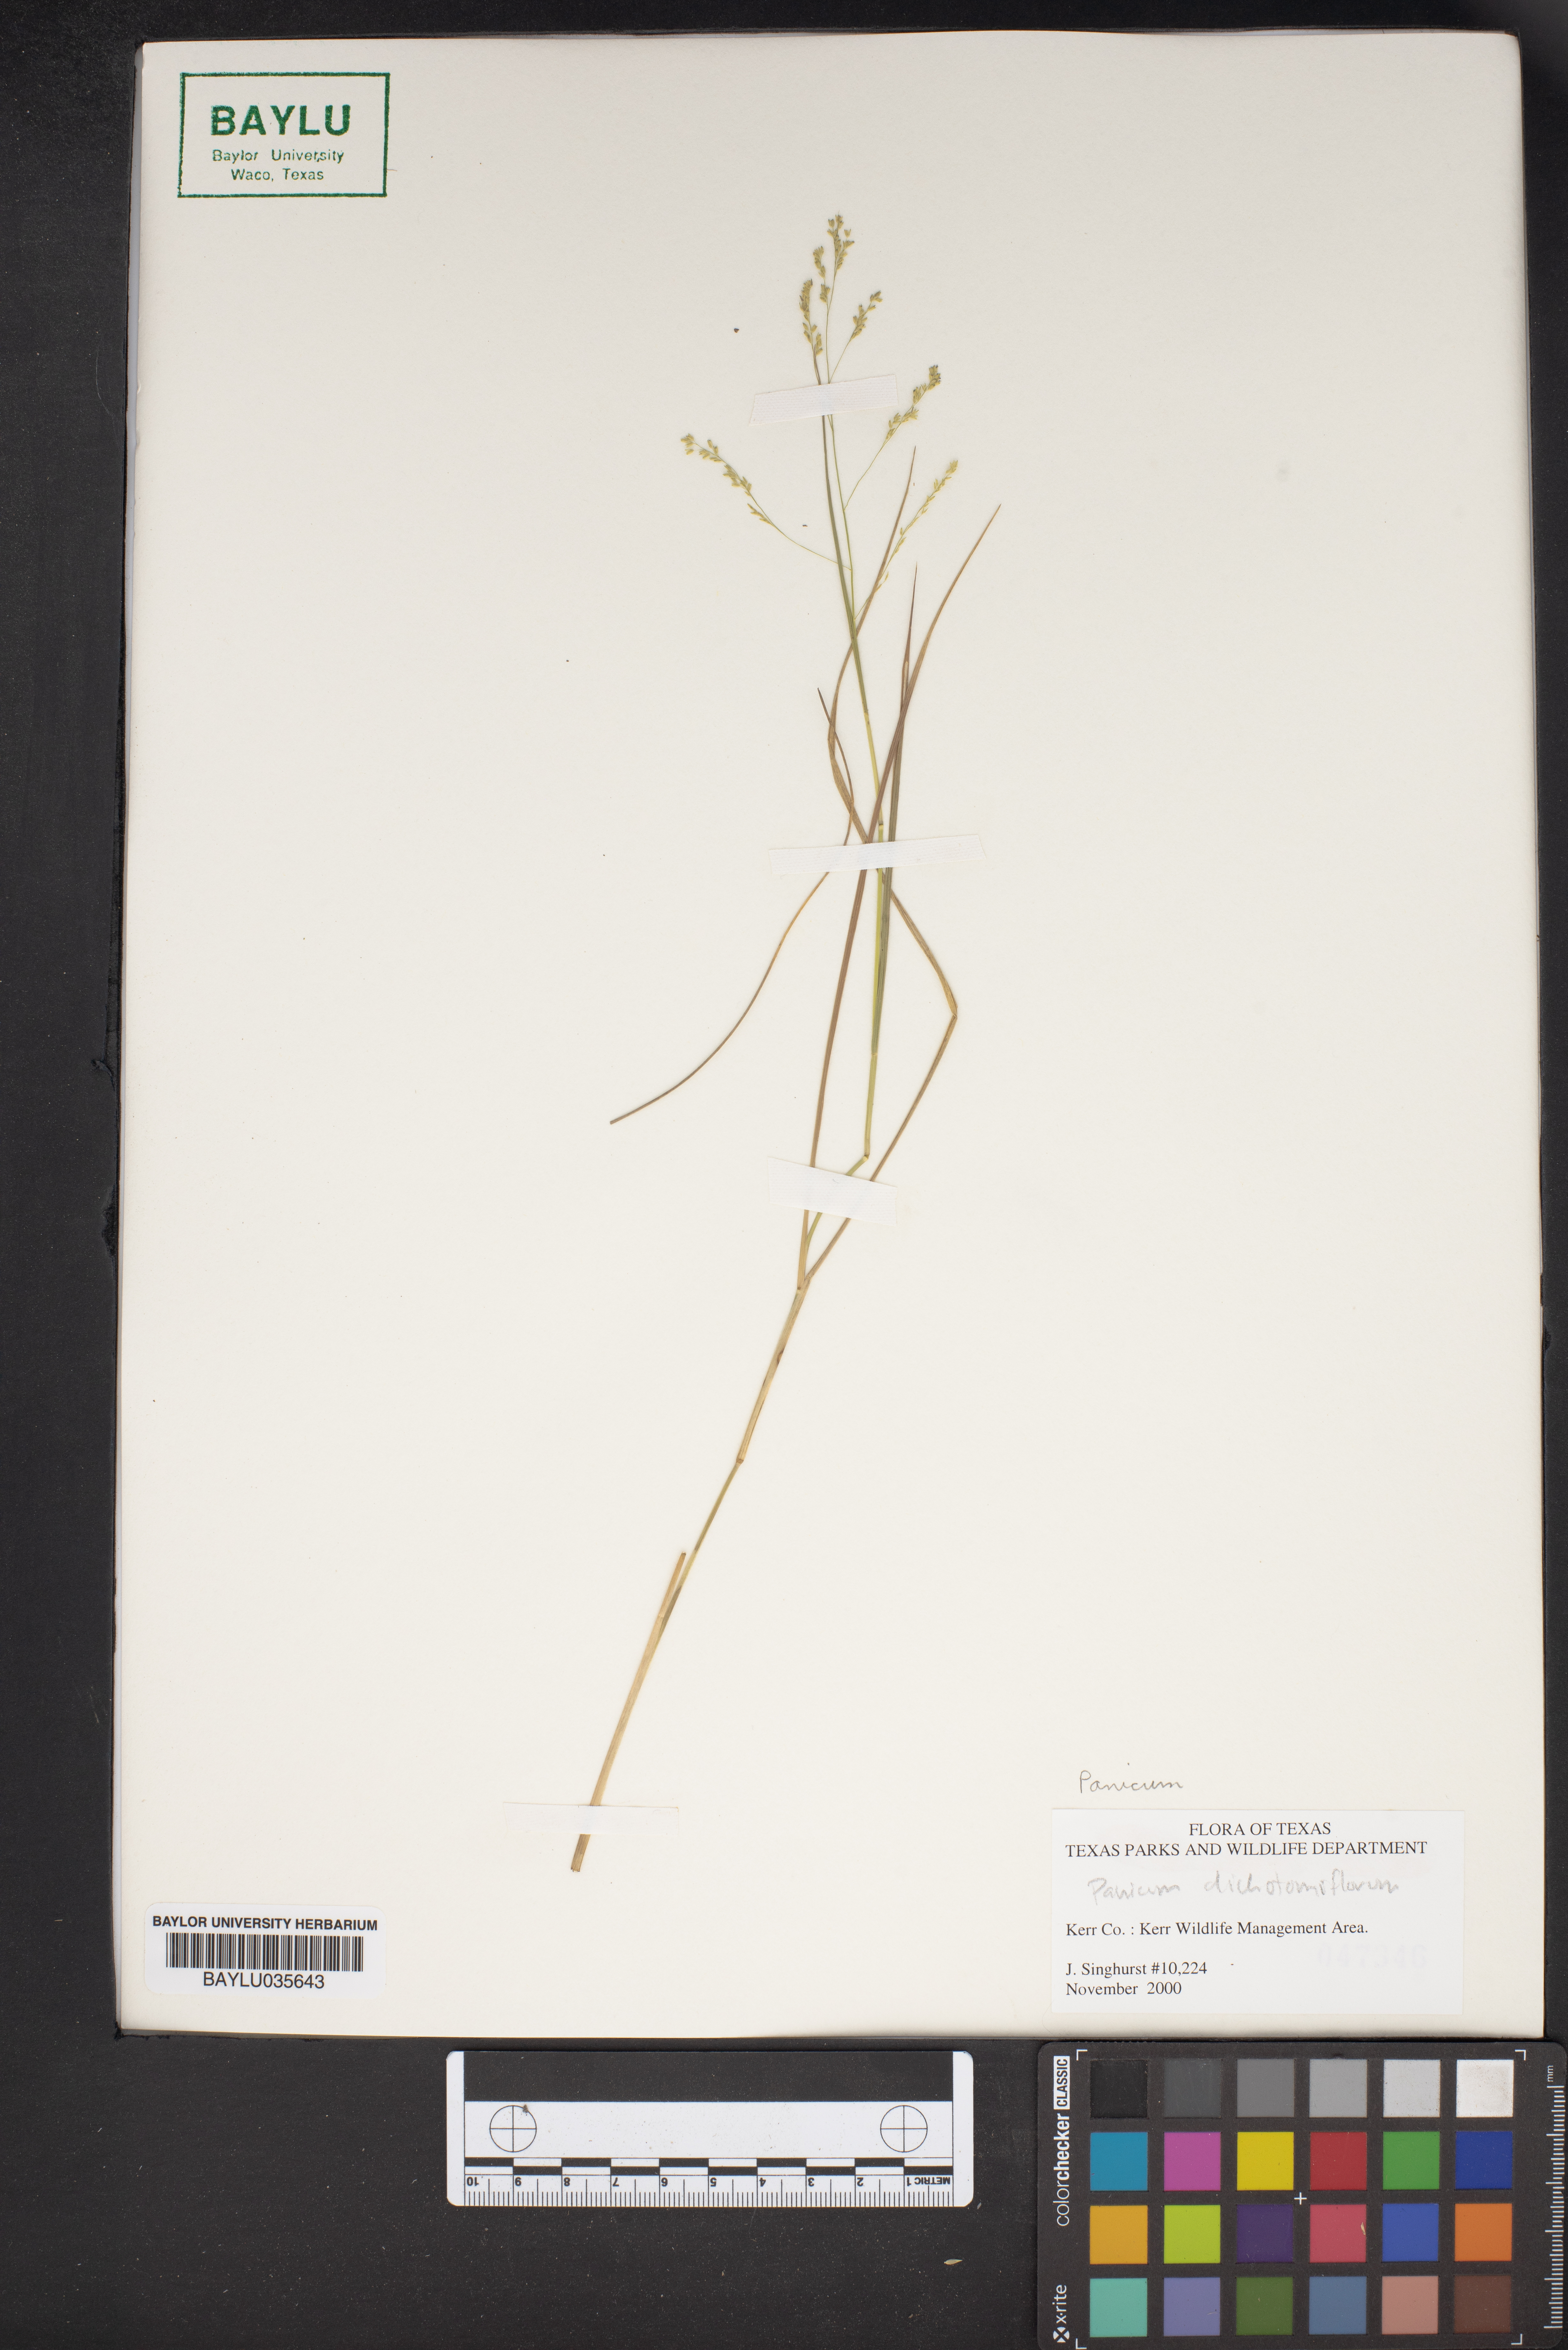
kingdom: Plantae
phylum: Tracheophyta
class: Liliopsida
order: Poales
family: Poaceae
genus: Panicum
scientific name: Panicum dichotomiflorum
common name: Autumn millet
